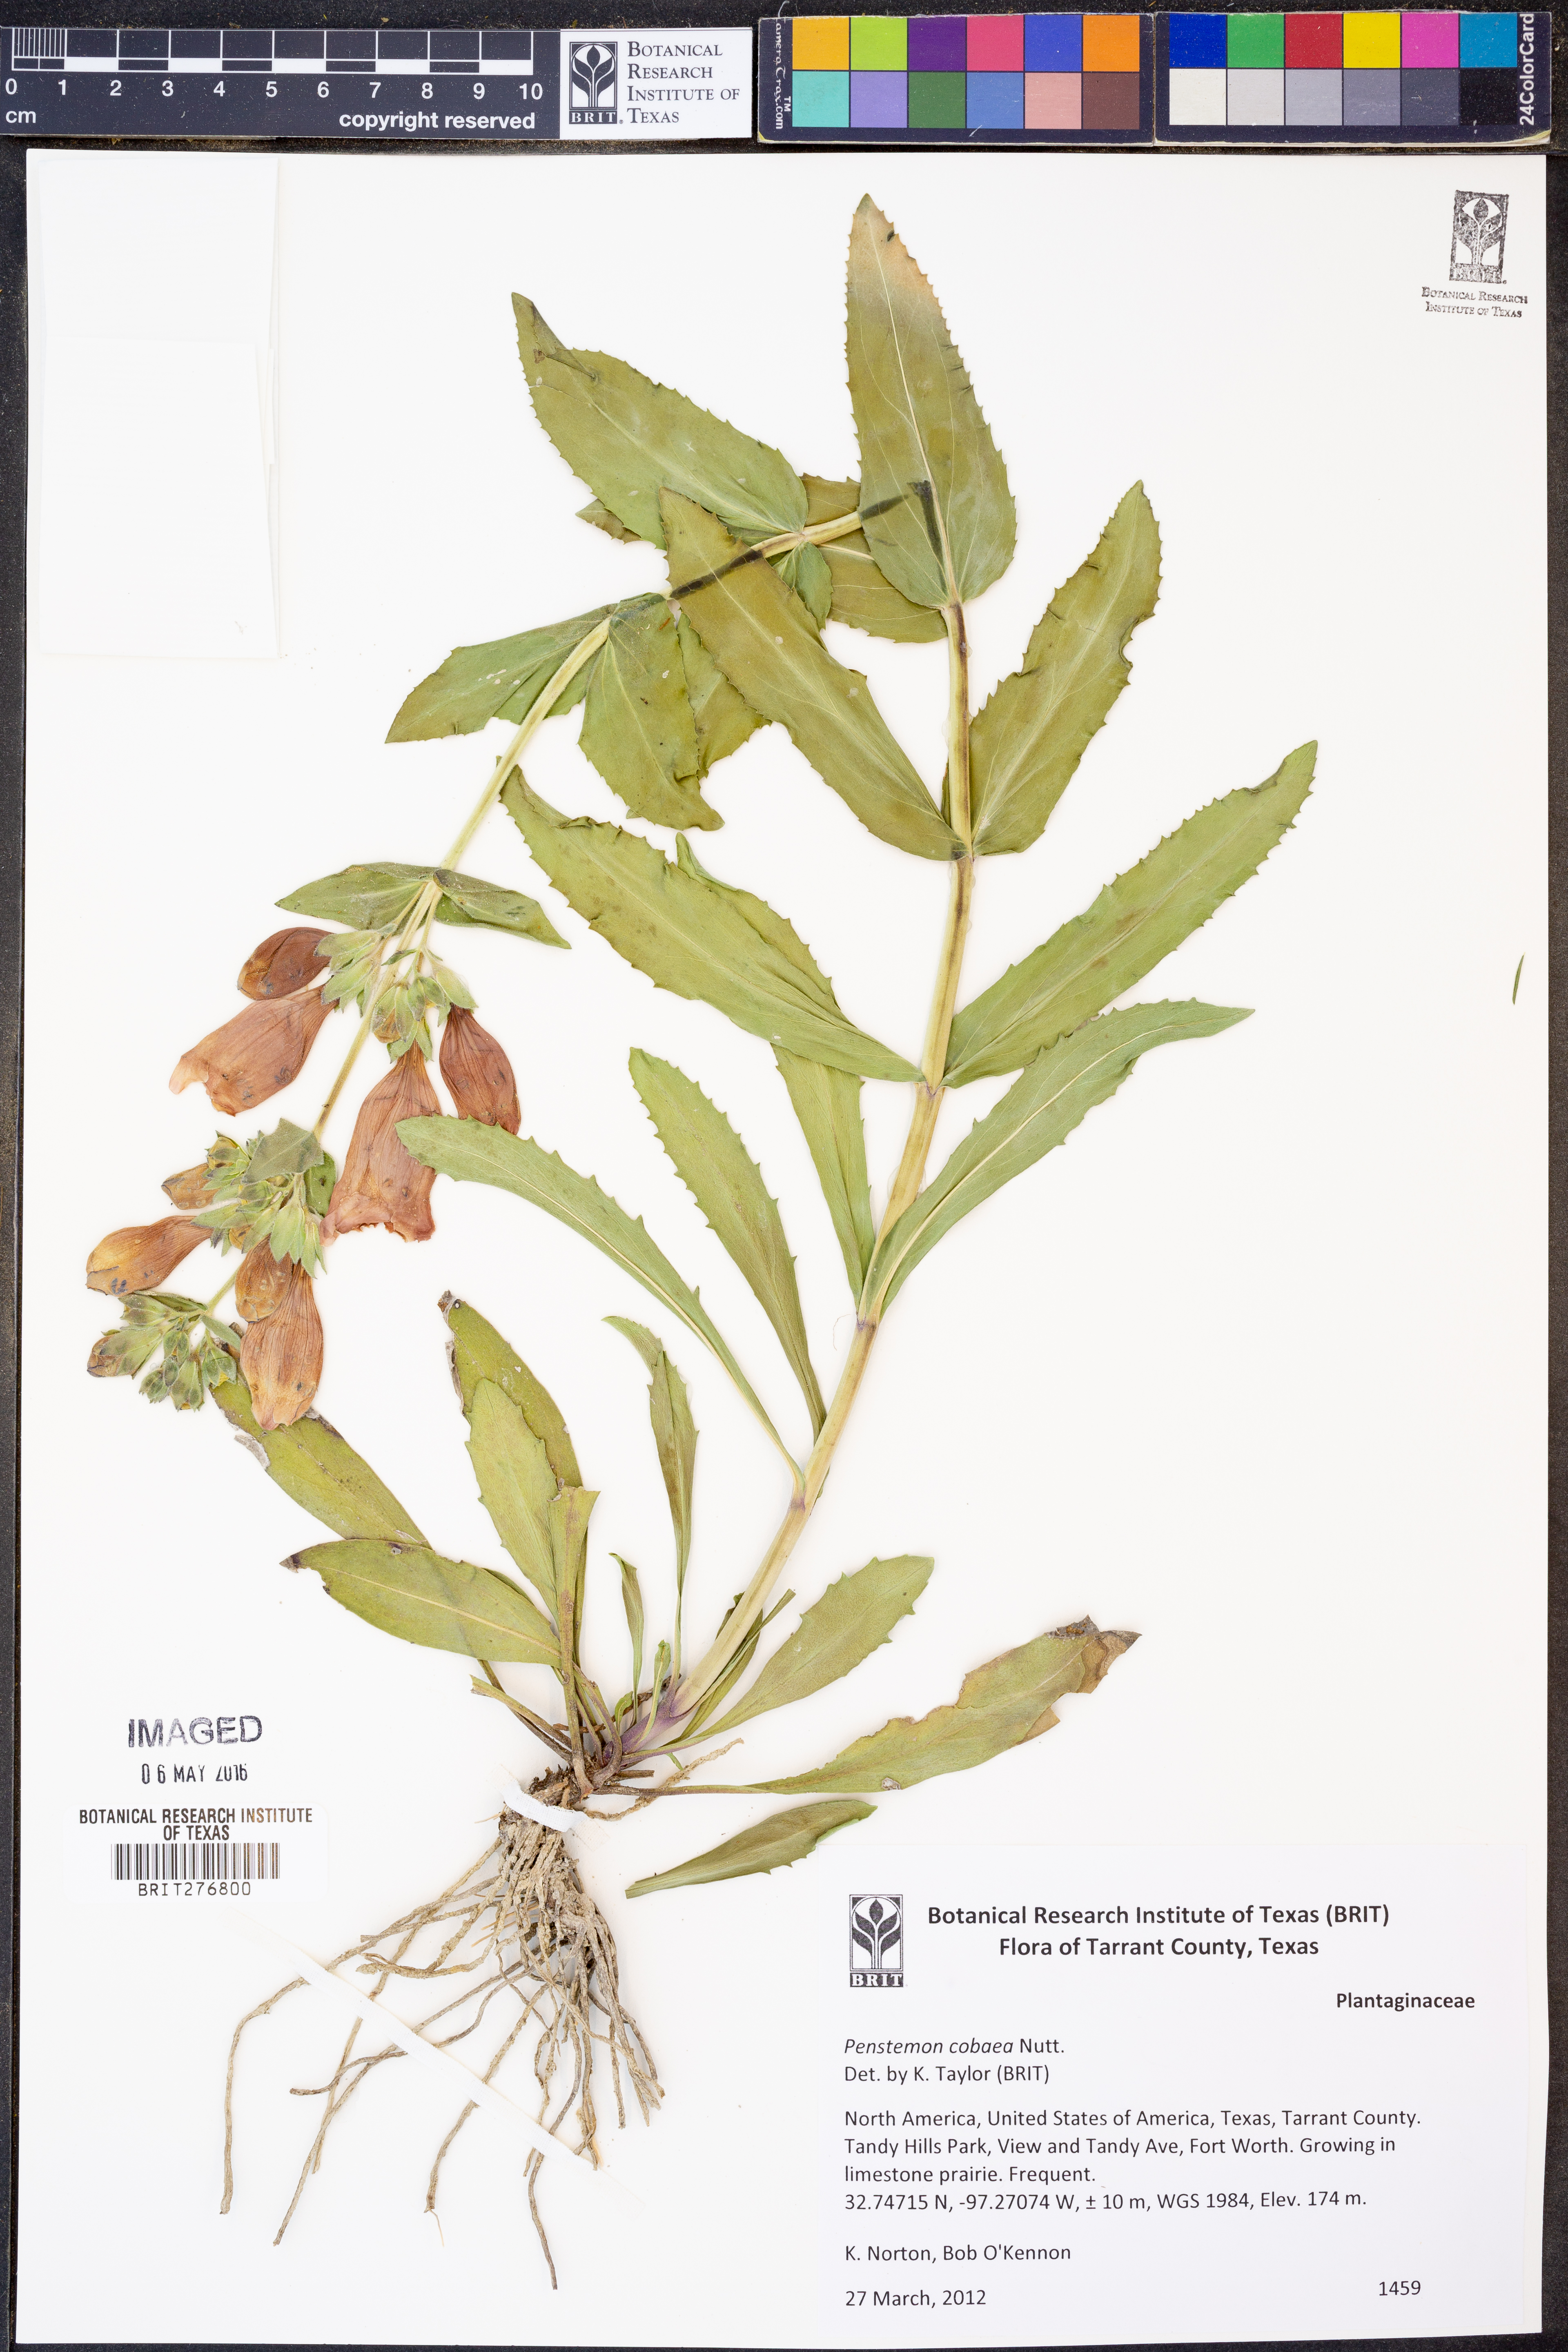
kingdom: Plantae
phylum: Tracheophyta
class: Magnoliopsida
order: Lamiales
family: Plantaginaceae
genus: Penstemon
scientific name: Penstemon cobaea
